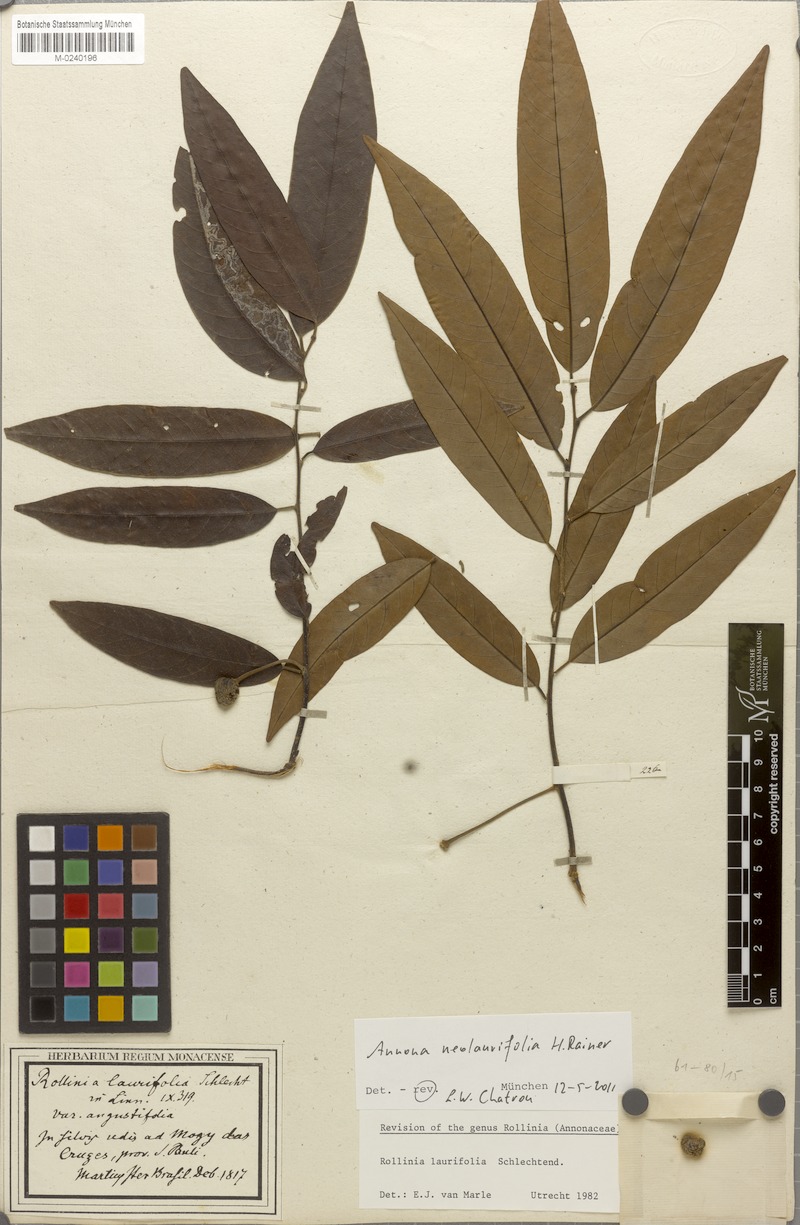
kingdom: Plantae
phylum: Tracheophyta
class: Magnoliopsida
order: Magnoliales
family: Annonaceae
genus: Annona
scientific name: Annona neolaurifolia
